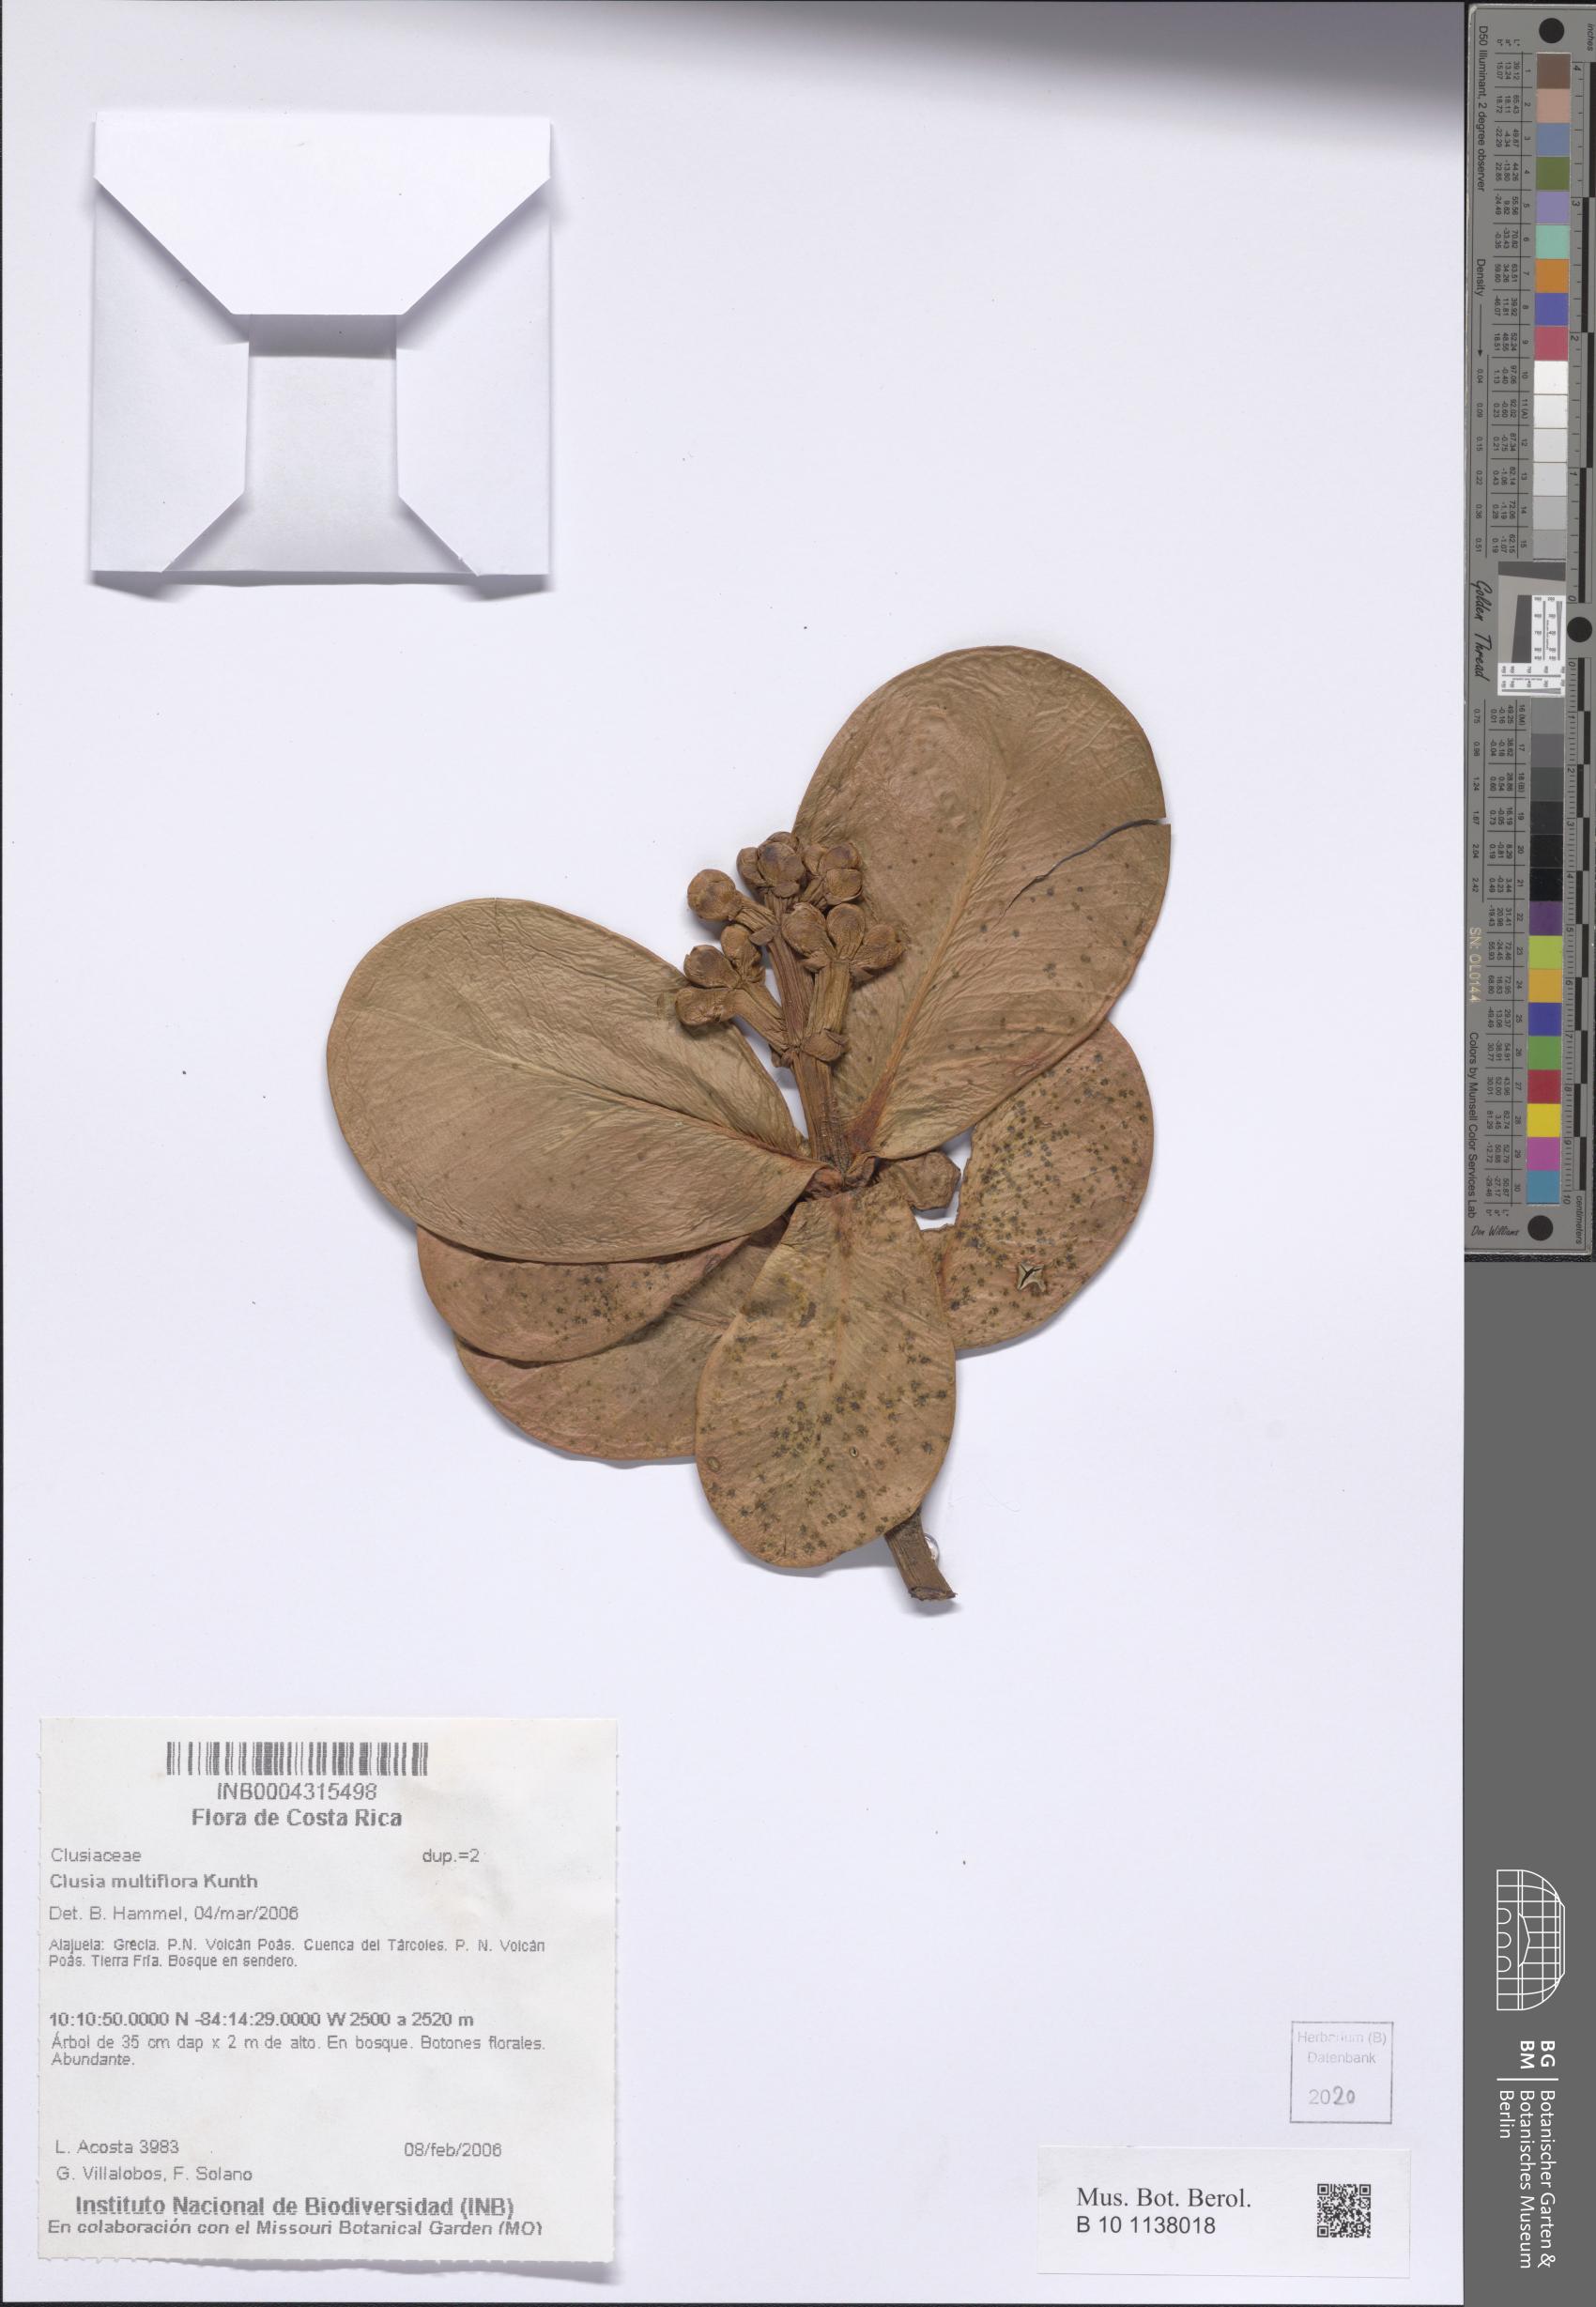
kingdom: Plantae
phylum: Tracheophyta
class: Magnoliopsida
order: Malpighiales
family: Clusiaceae
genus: Clusia
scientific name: Clusia multiflora
